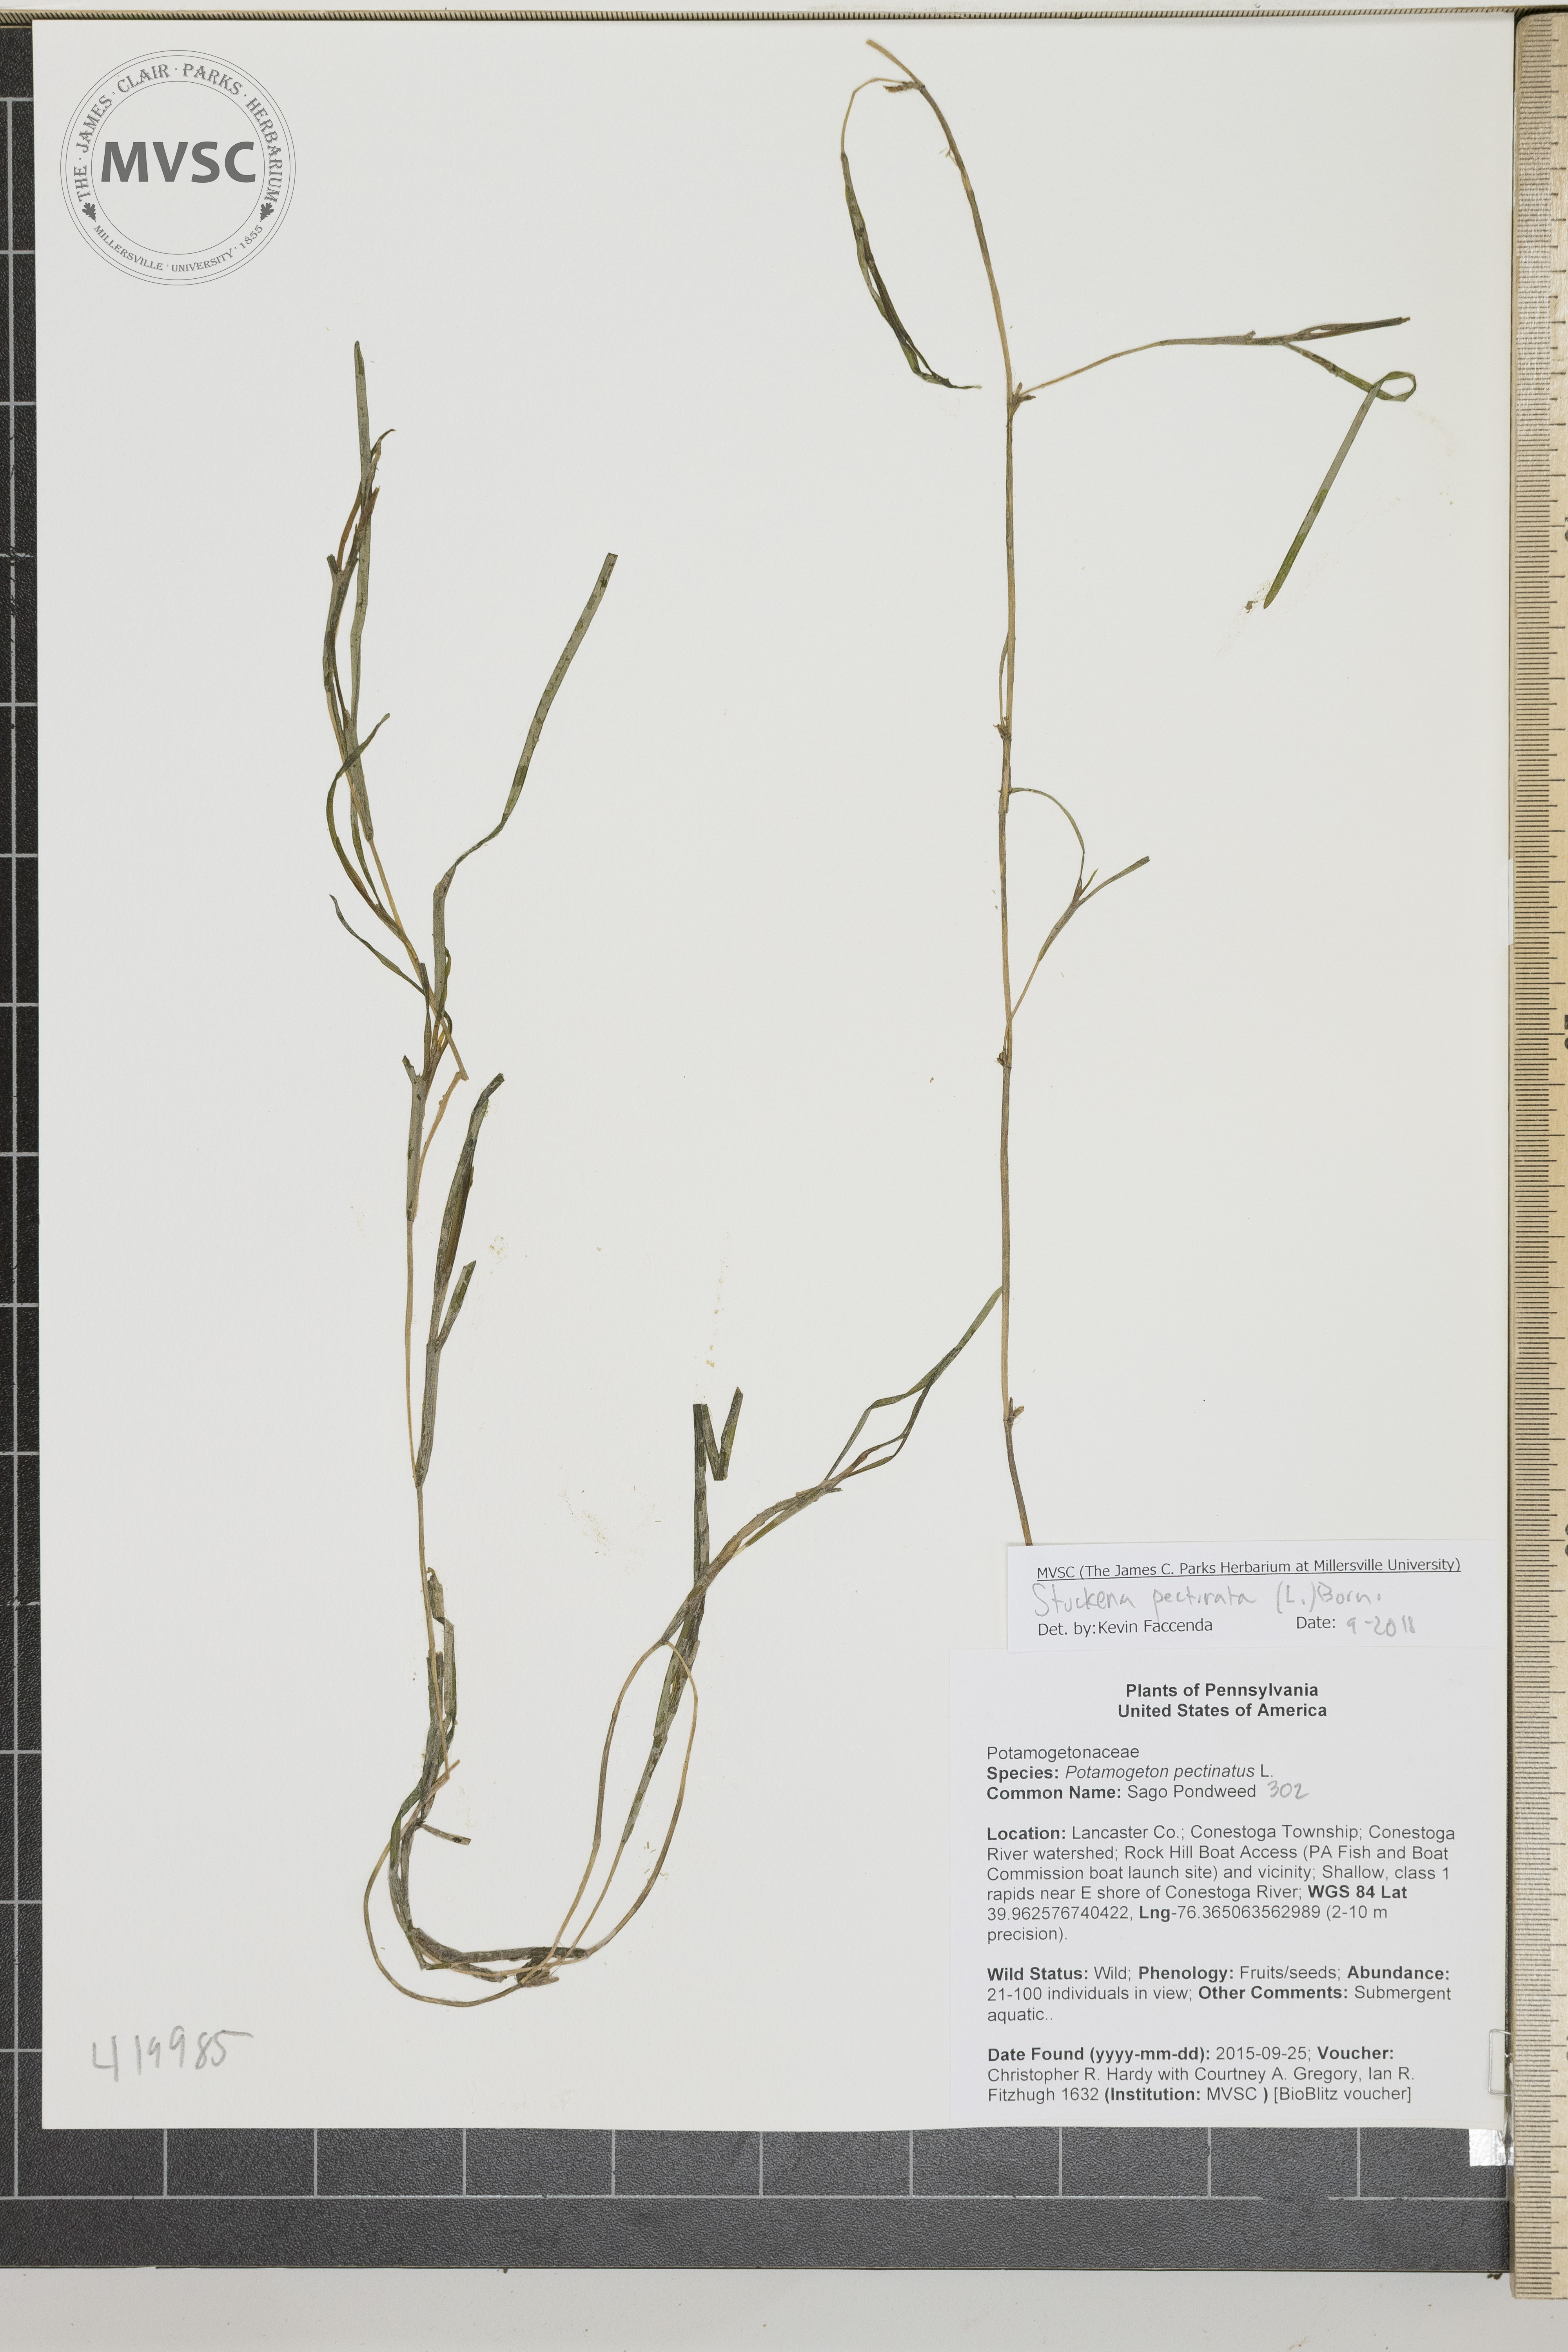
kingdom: Plantae
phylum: Tracheophyta
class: Liliopsida
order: Alismatales
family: Potamogetonaceae
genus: Stuckenia
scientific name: Stuckenia pectinata
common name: Sago Pondweed
